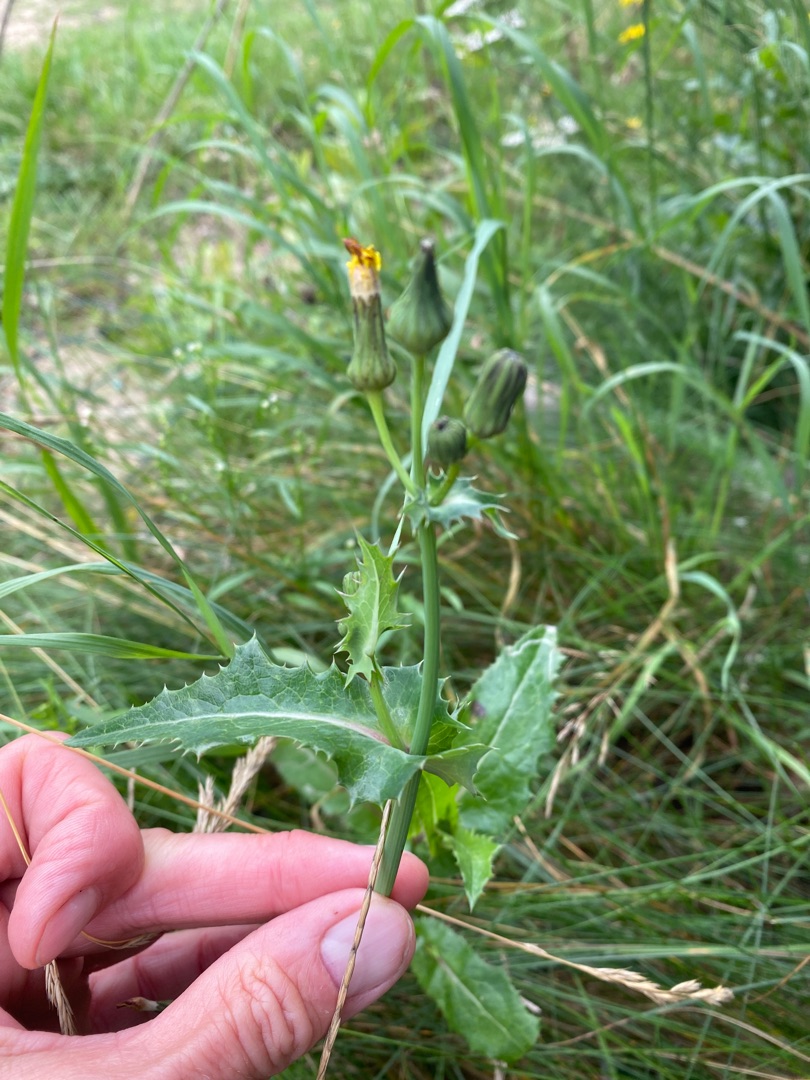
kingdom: Plantae
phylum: Tracheophyta
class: Magnoliopsida
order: Asterales
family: Asteraceae
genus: Sonchus
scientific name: Sonchus asper
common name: Ru svinemælk
